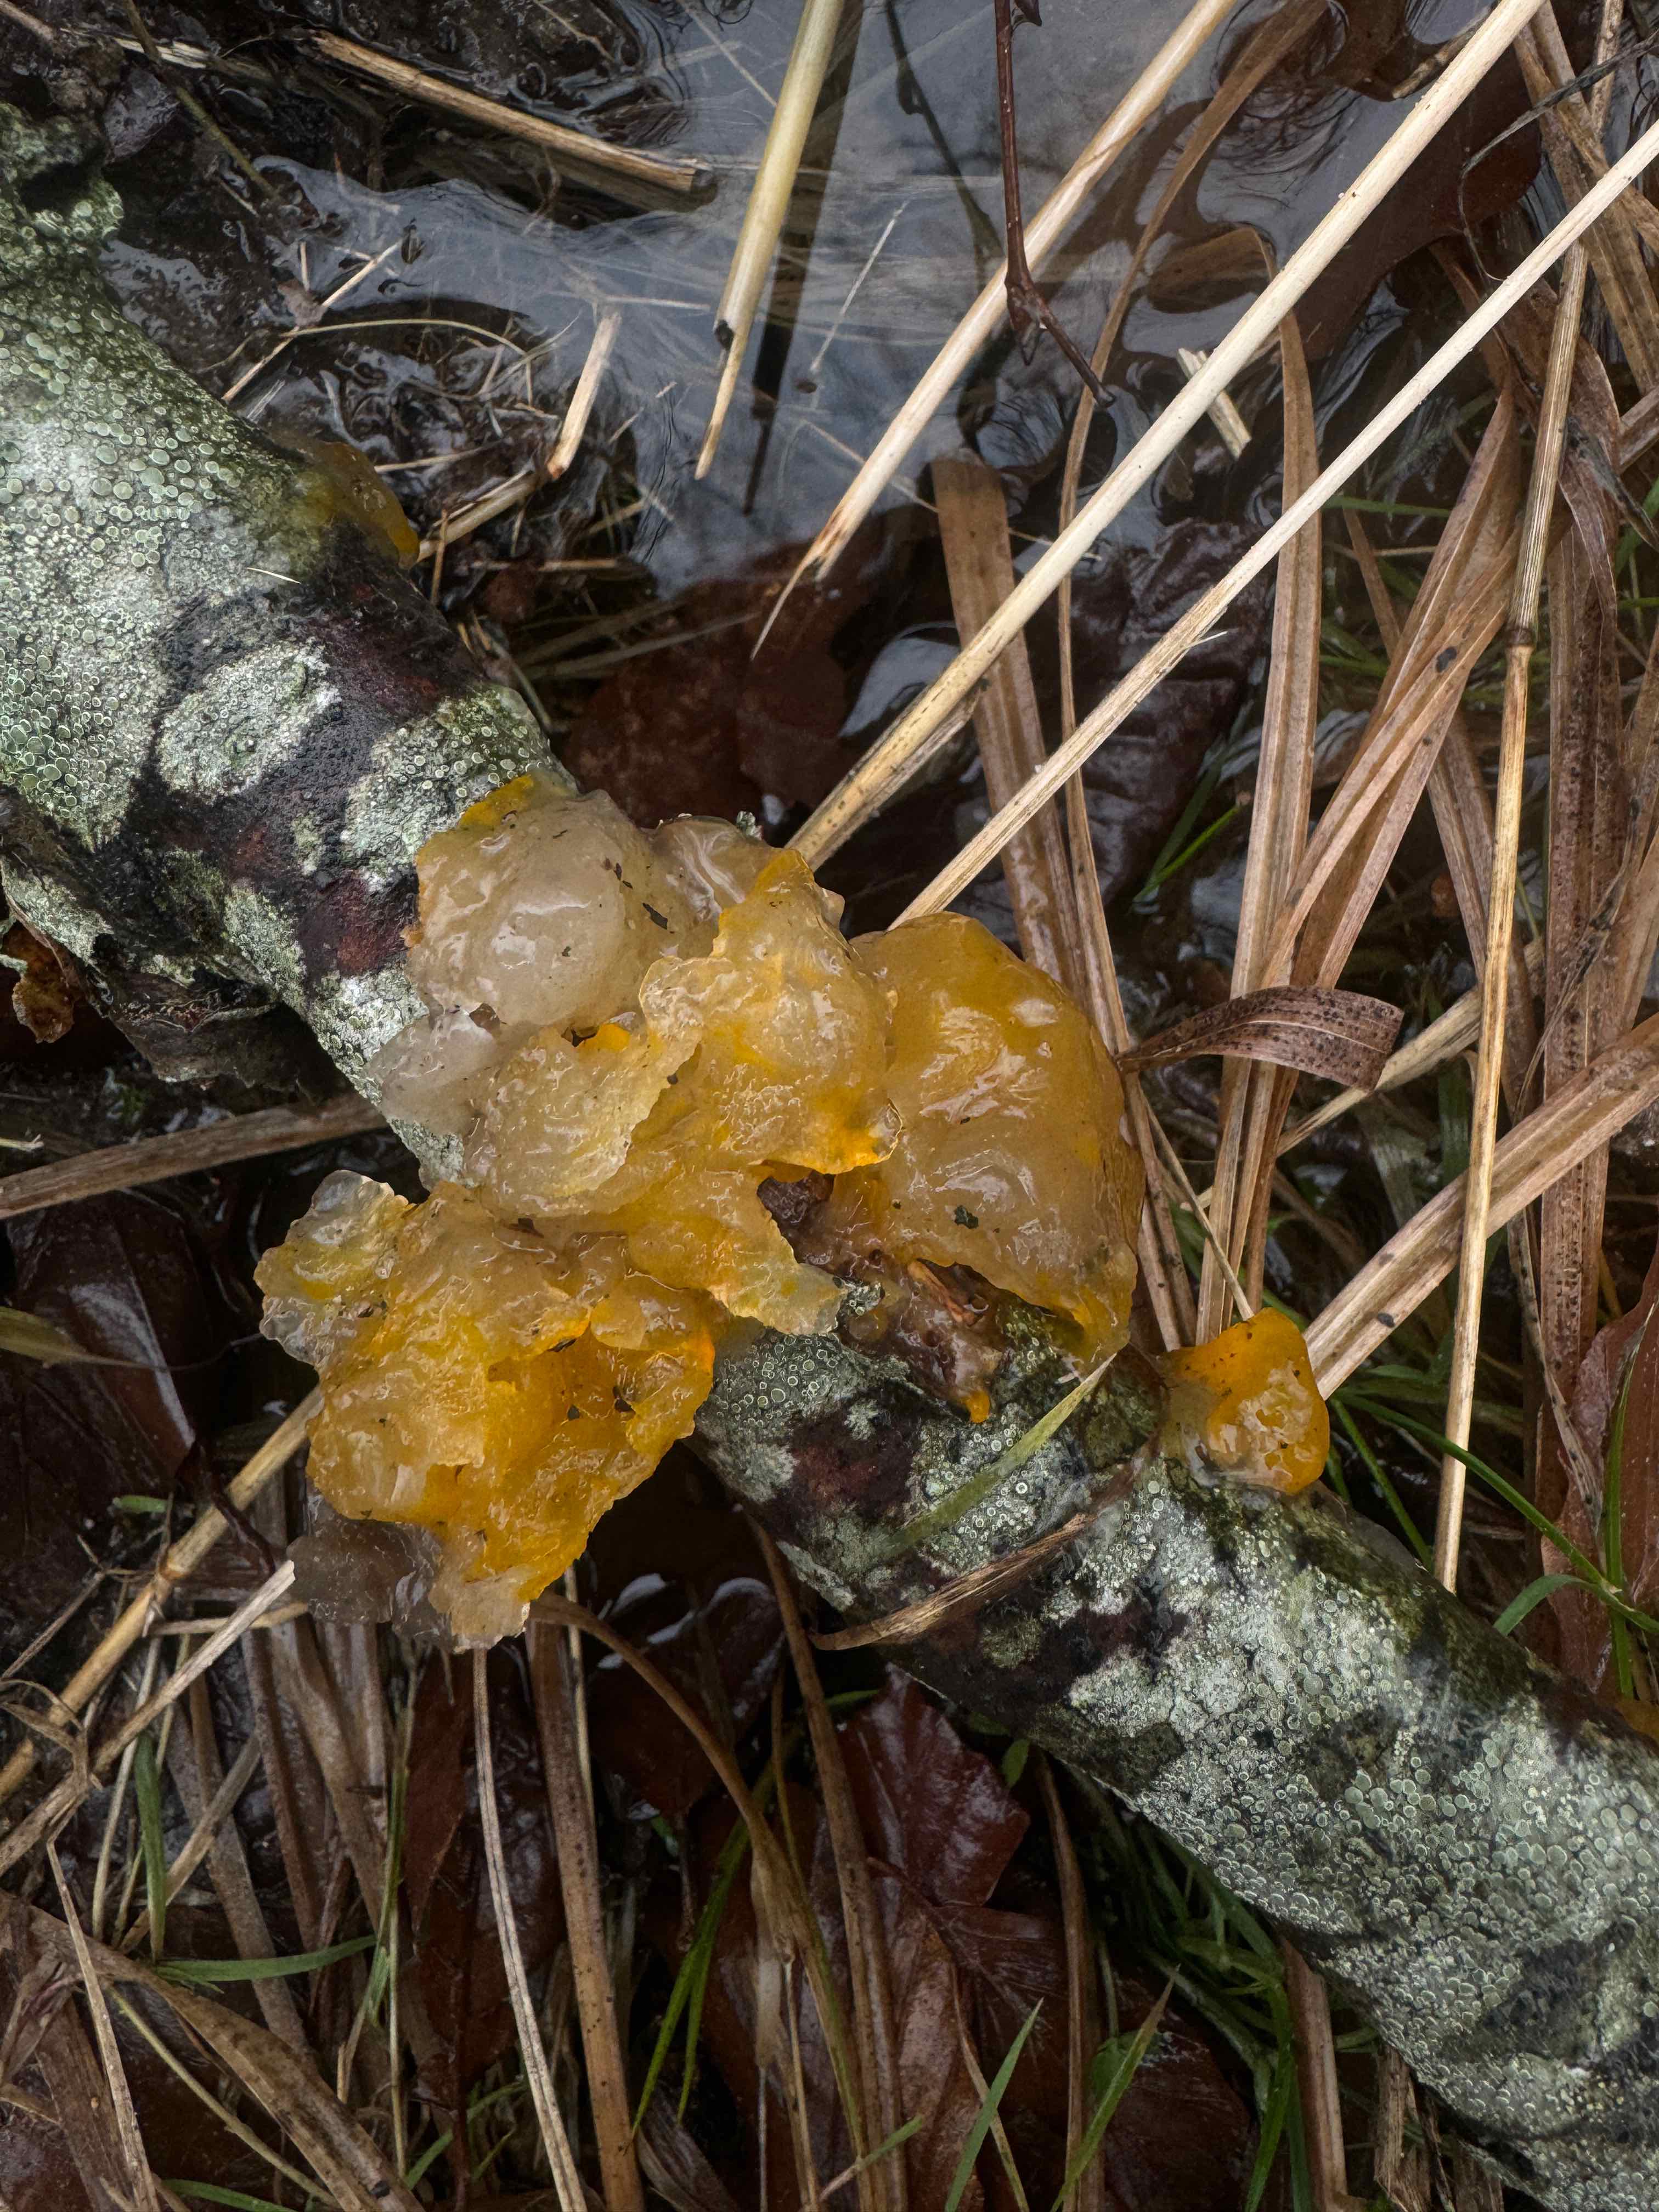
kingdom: Fungi
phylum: Basidiomycota
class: Tremellomycetes
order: Tremellales
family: Tremellaceae
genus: Tremella
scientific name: Tremella mesenterica
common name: gul bævresvamp
